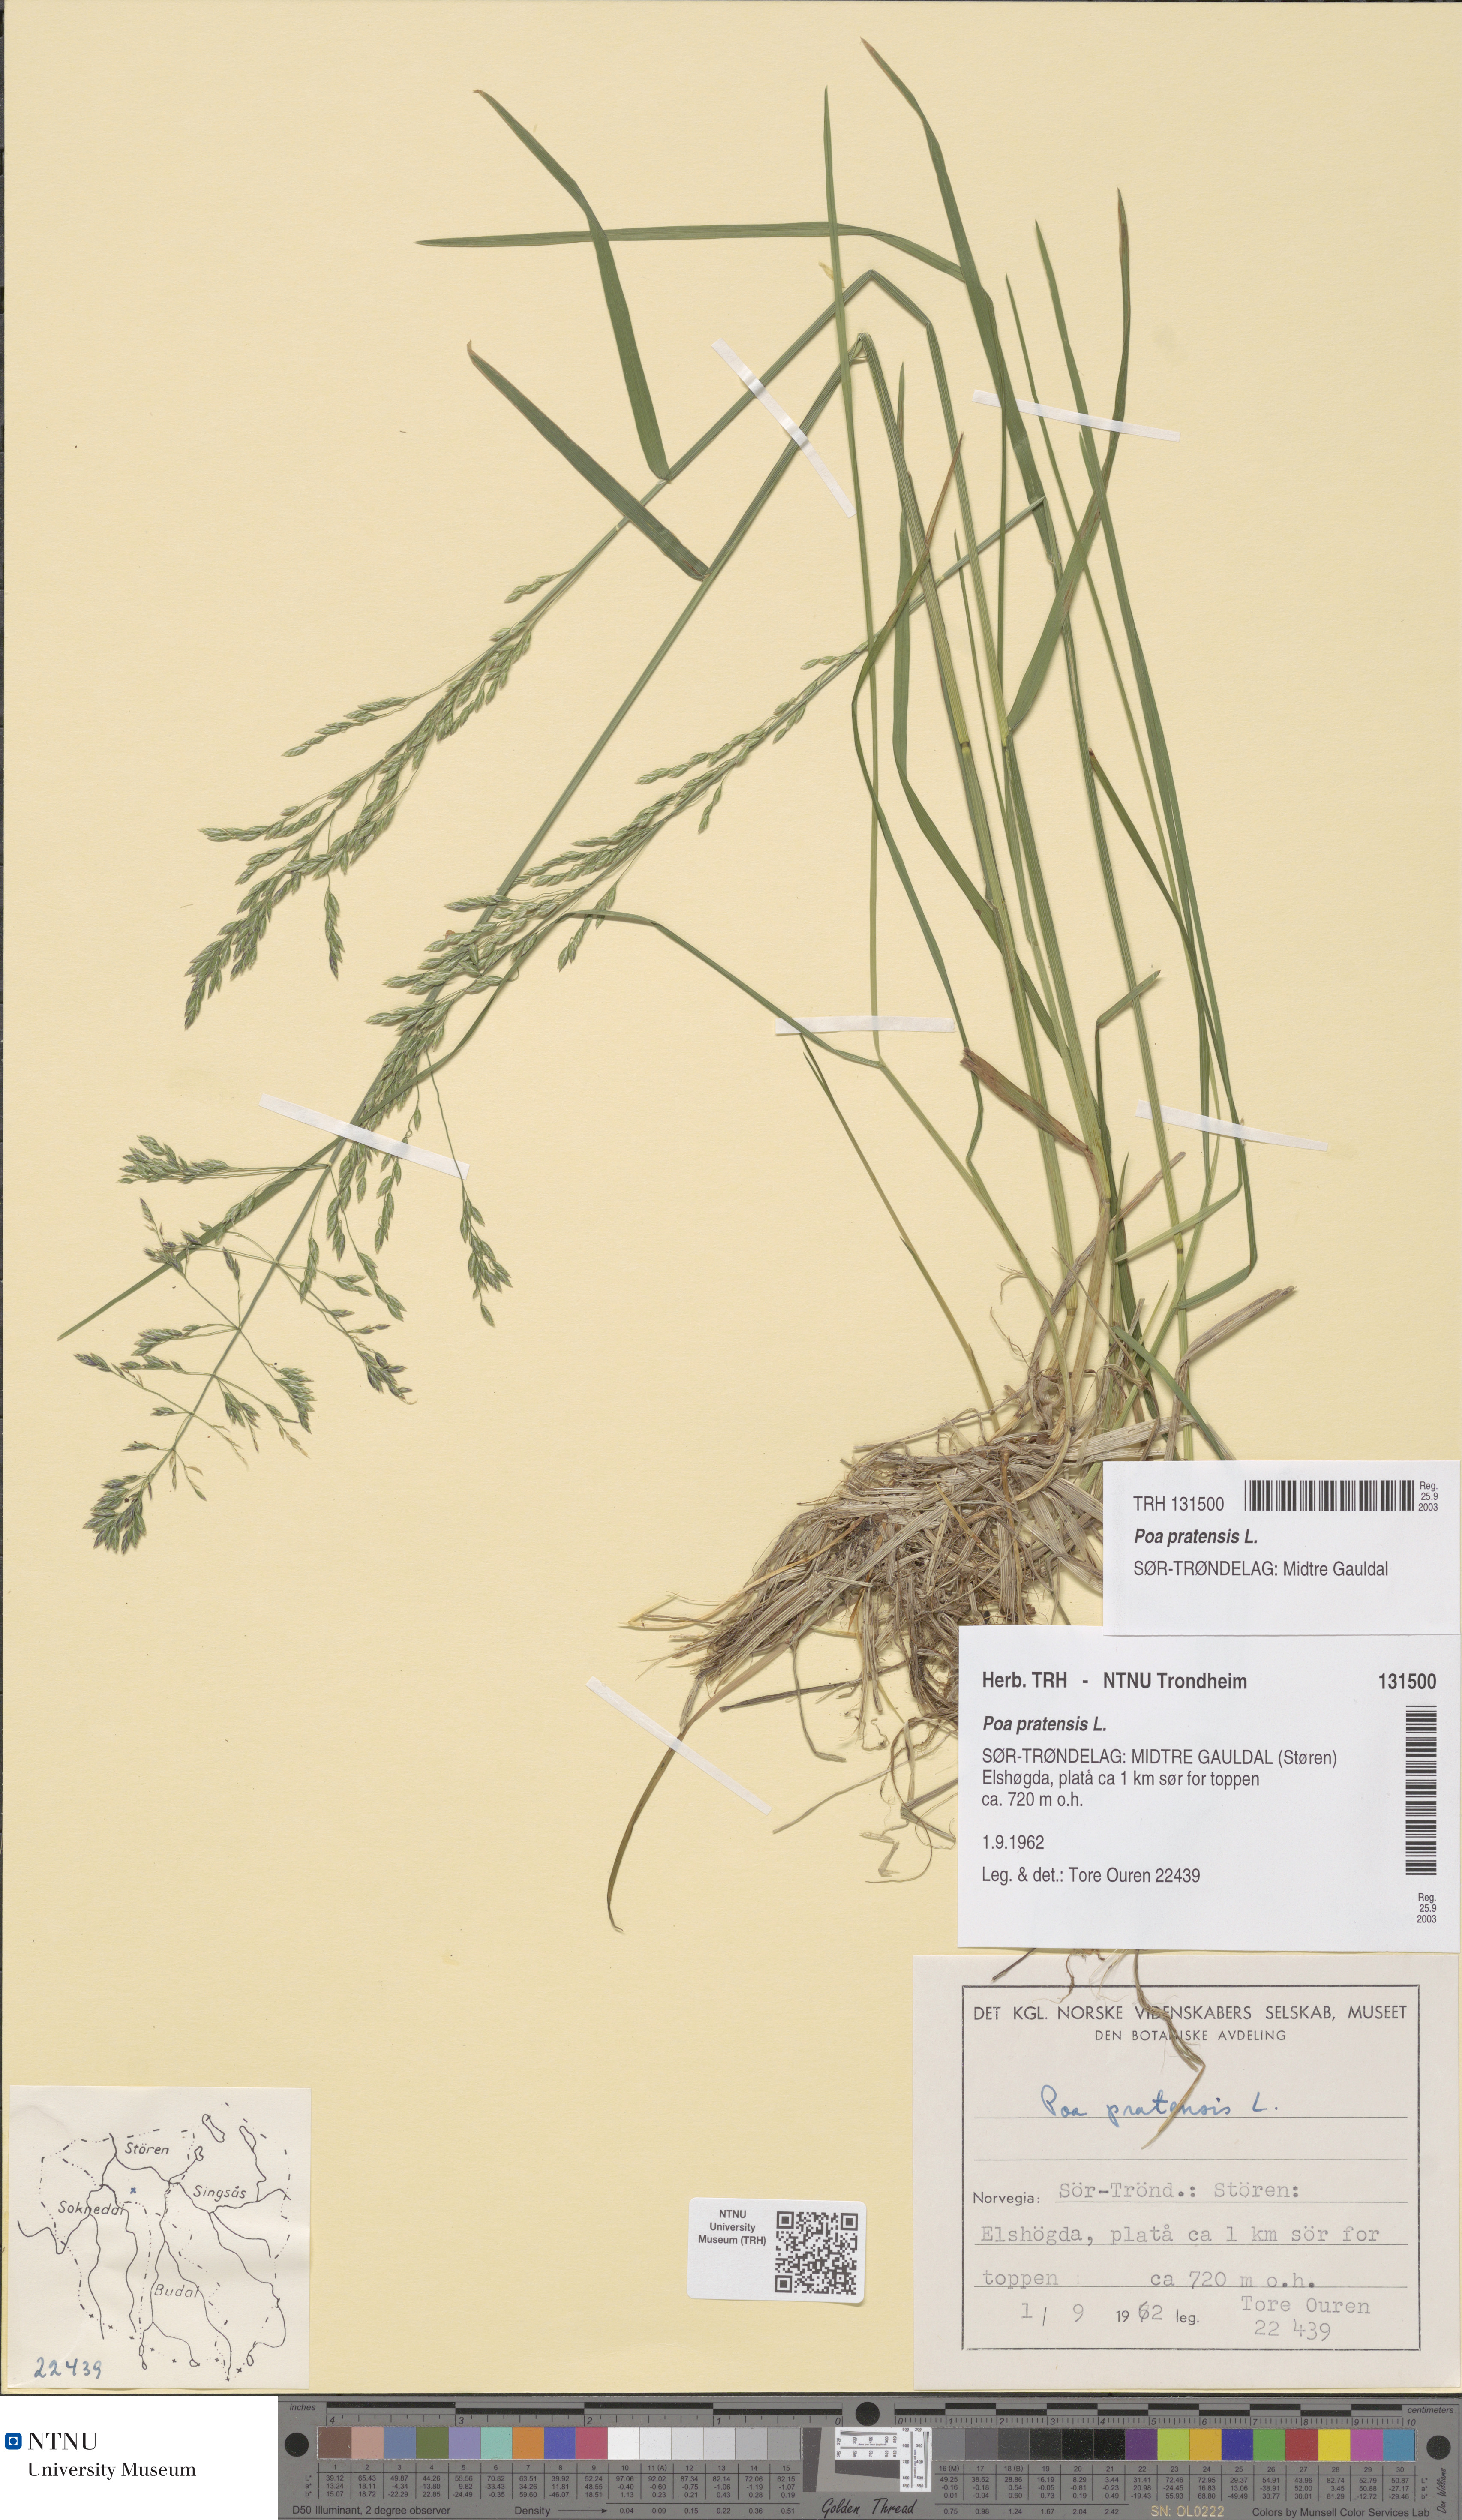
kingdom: Plantae
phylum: Tracheophyta
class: Liliopsida
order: Poales
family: Poaceae
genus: Poa
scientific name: Poa pratensis
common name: Kentucky bluegrass
